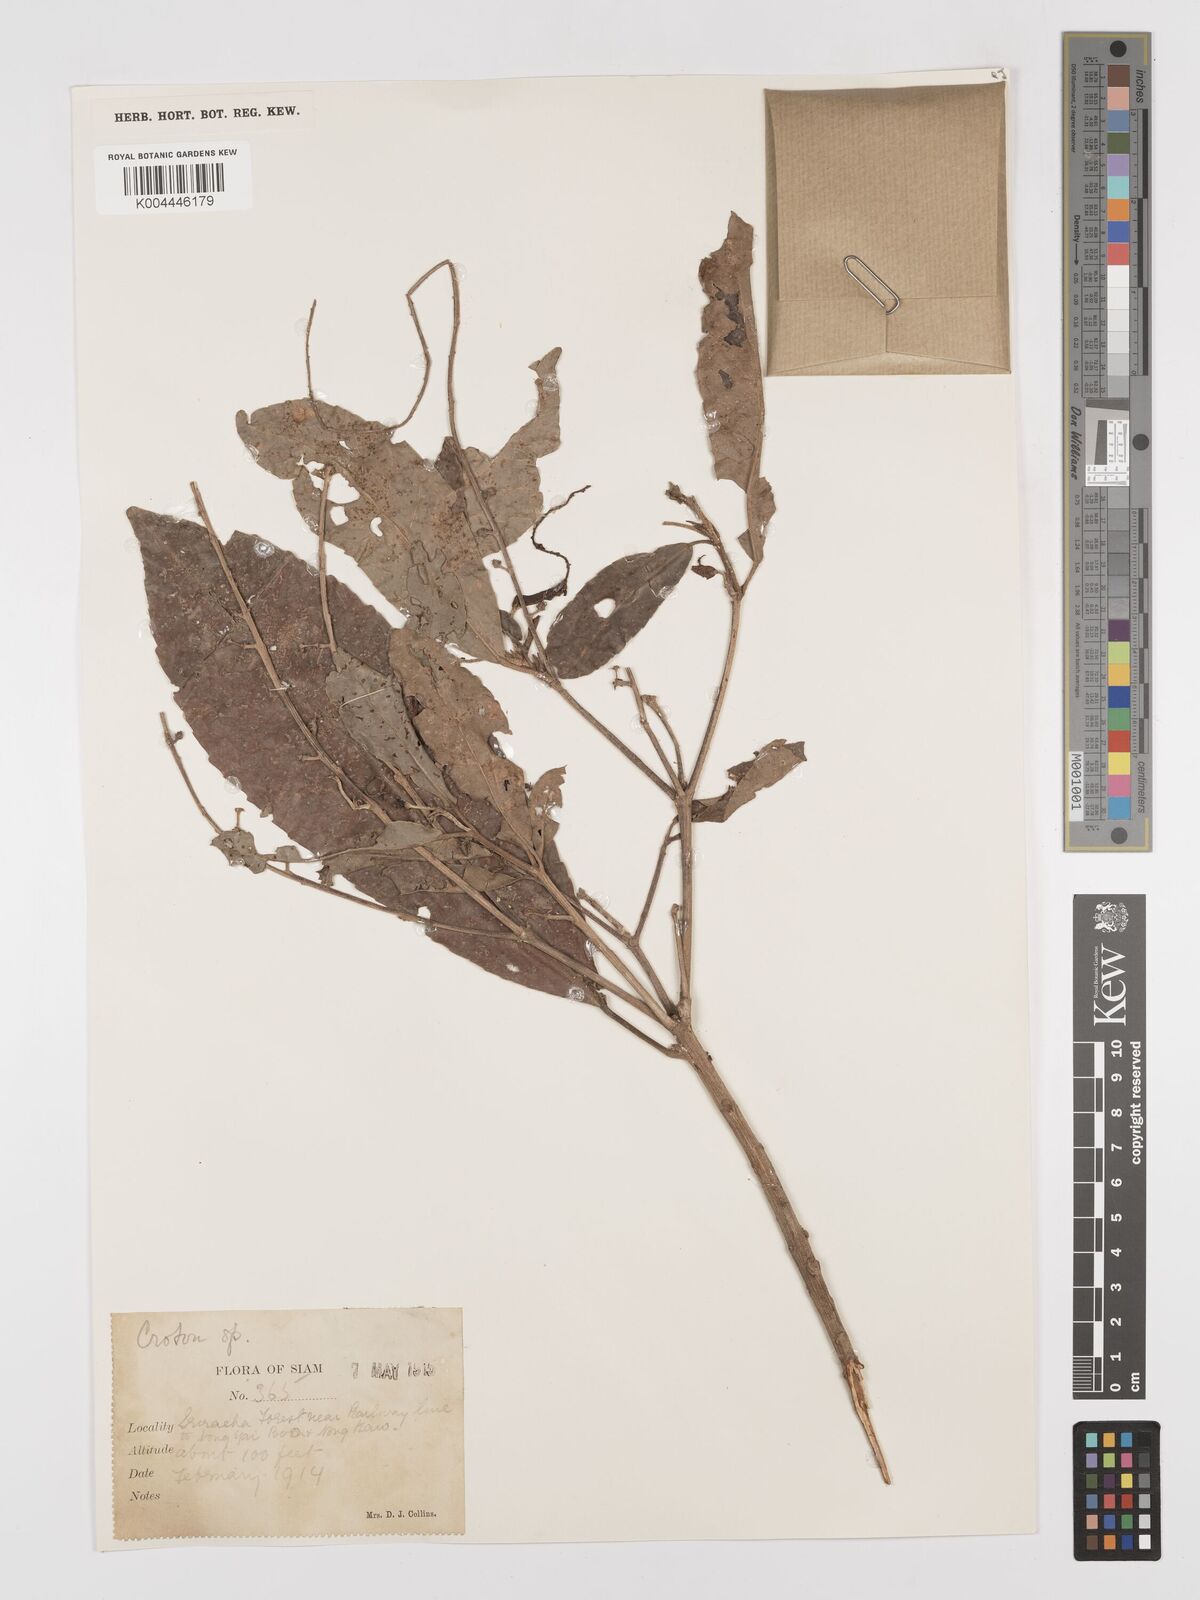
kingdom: Plantae
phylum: Tracheophyta
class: Magnoliopsida
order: Malpighiales
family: Euphorbiaceae
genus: Croton
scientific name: Croton delpyi
